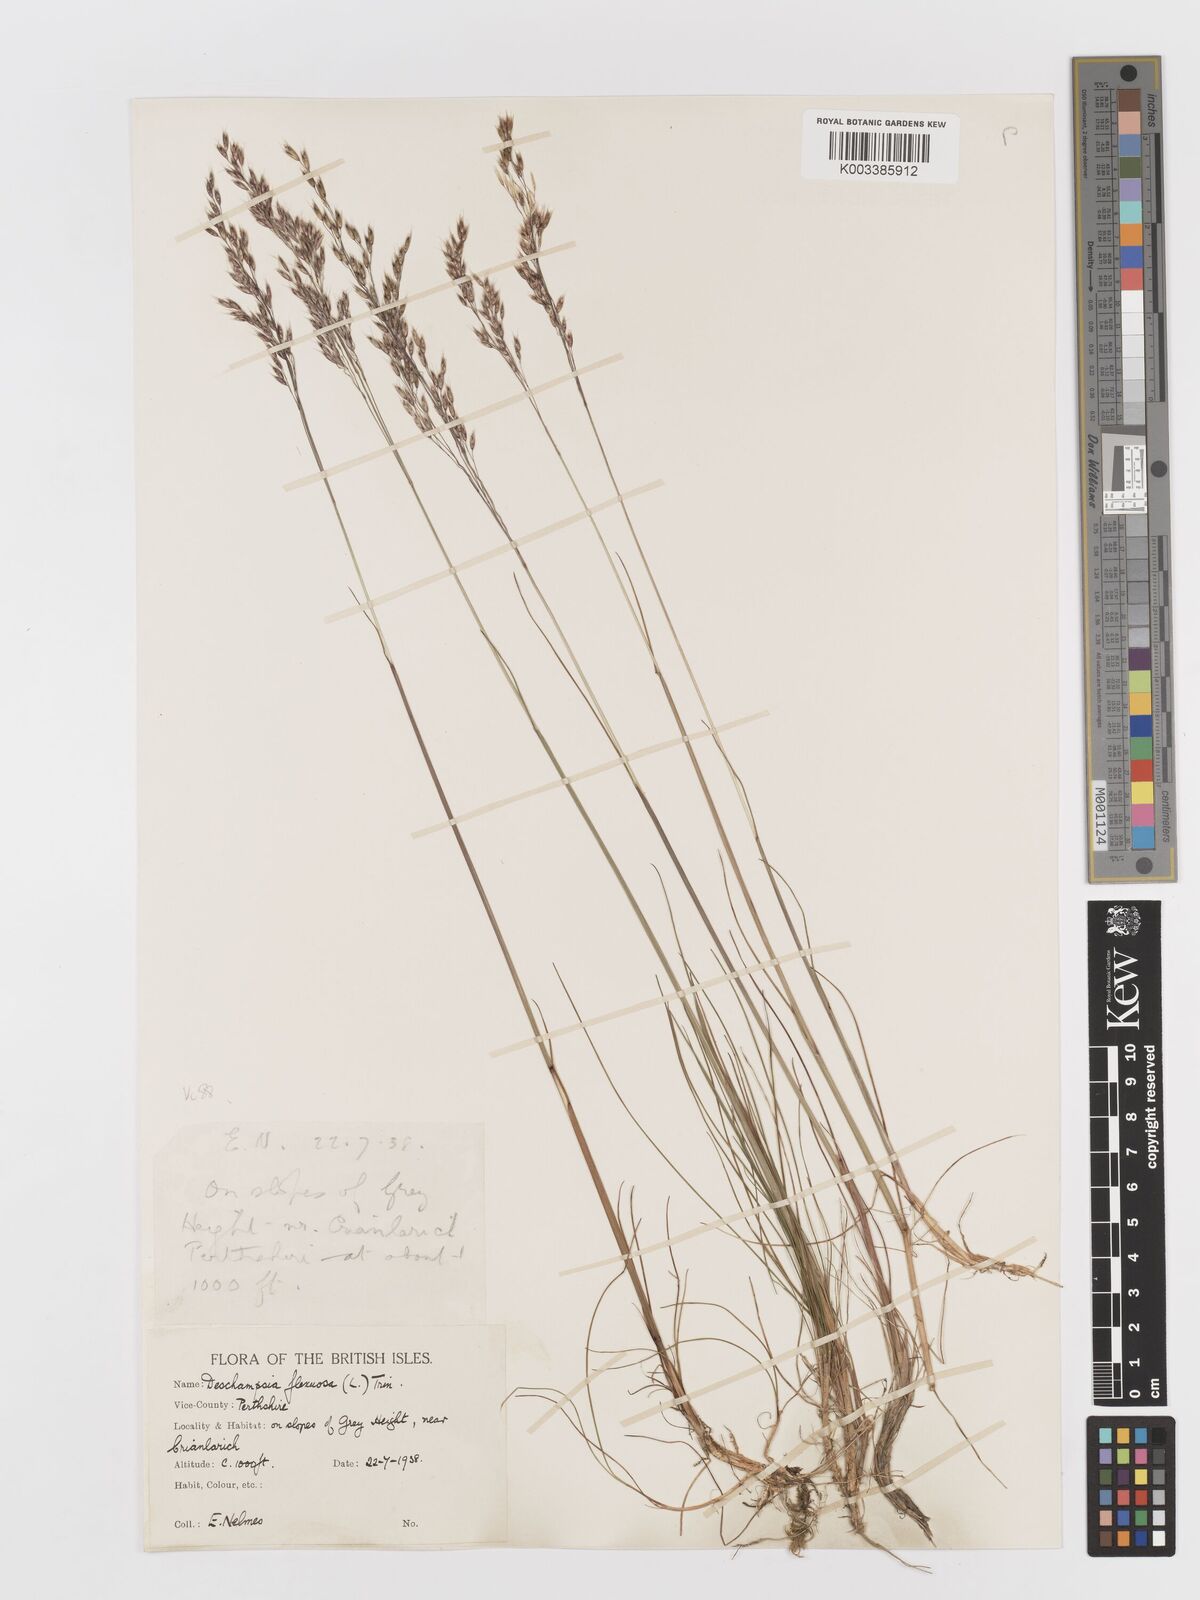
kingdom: Plantae
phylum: Tracheophyta
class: Liliopsida
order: Poales
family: Poaceae
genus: Avenella
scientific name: Avenella flexuosa
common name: Wavy hairgrass
